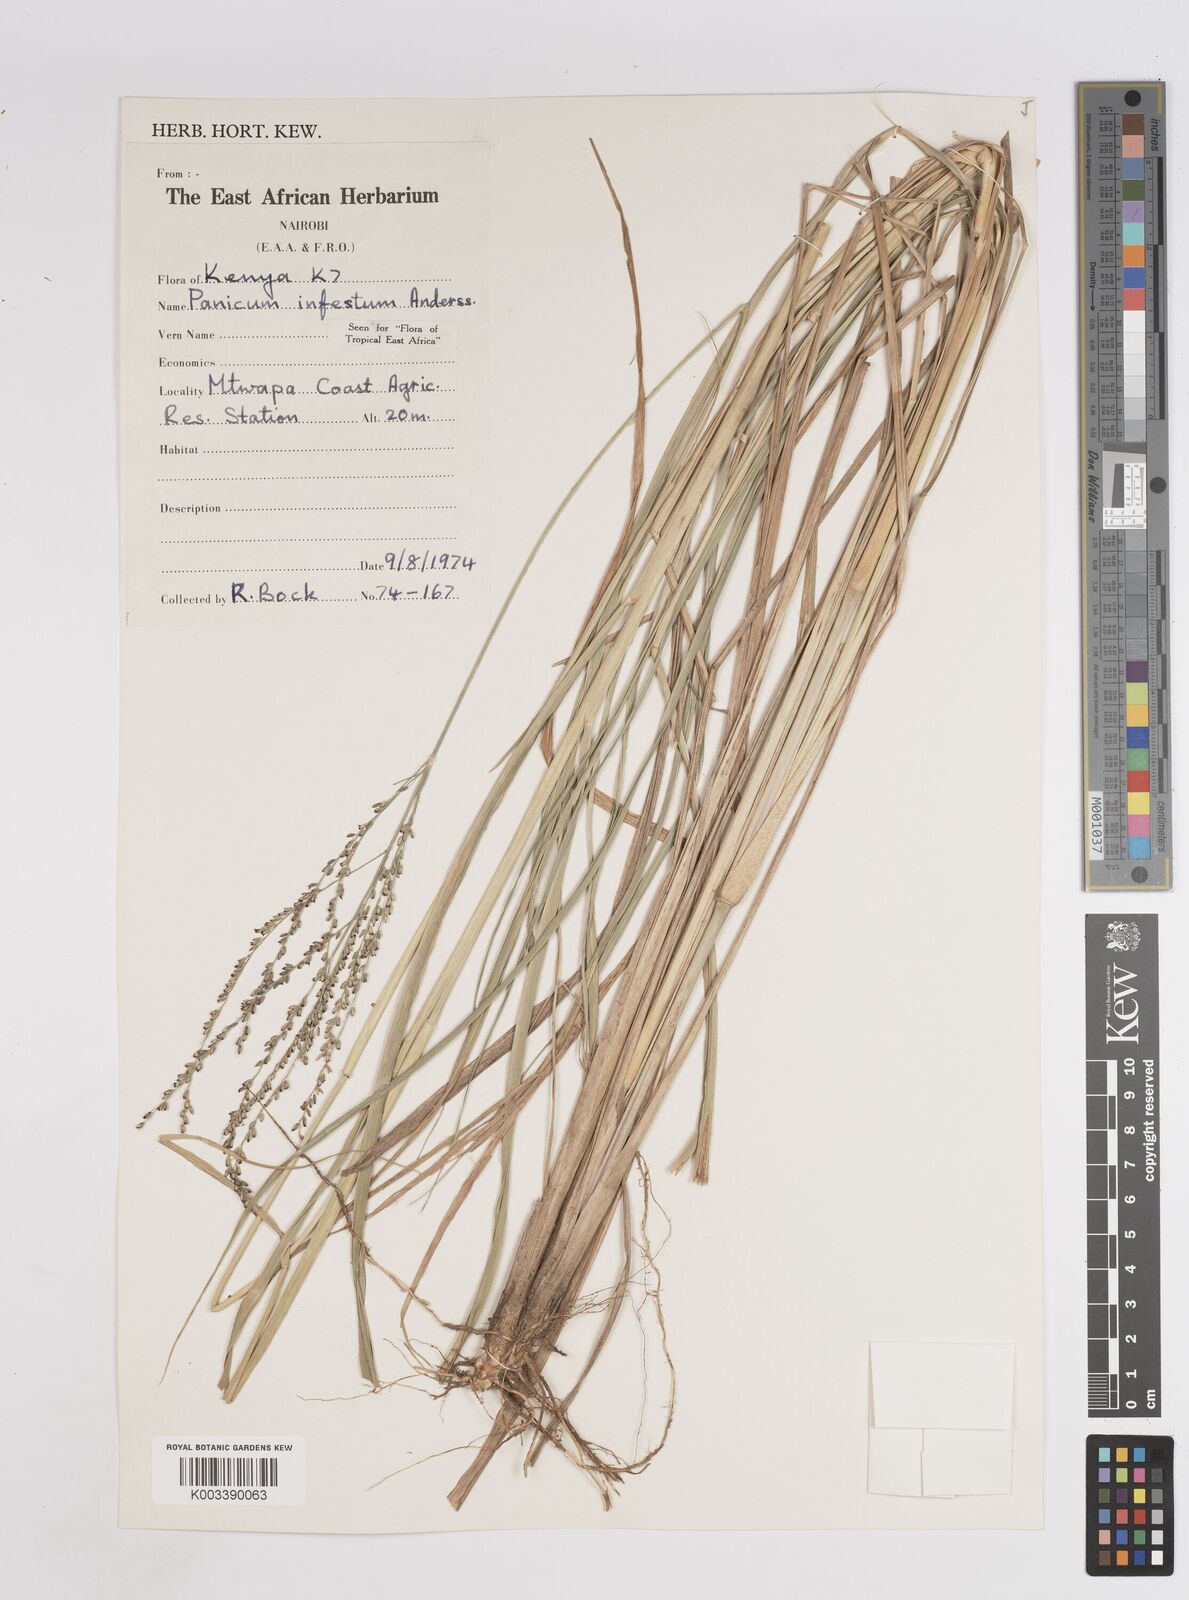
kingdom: Plantae
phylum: Tracheophyta
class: Liliopsida
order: Poales
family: Poaceae
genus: Megathyrsus
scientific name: Megathyrsus infestus
